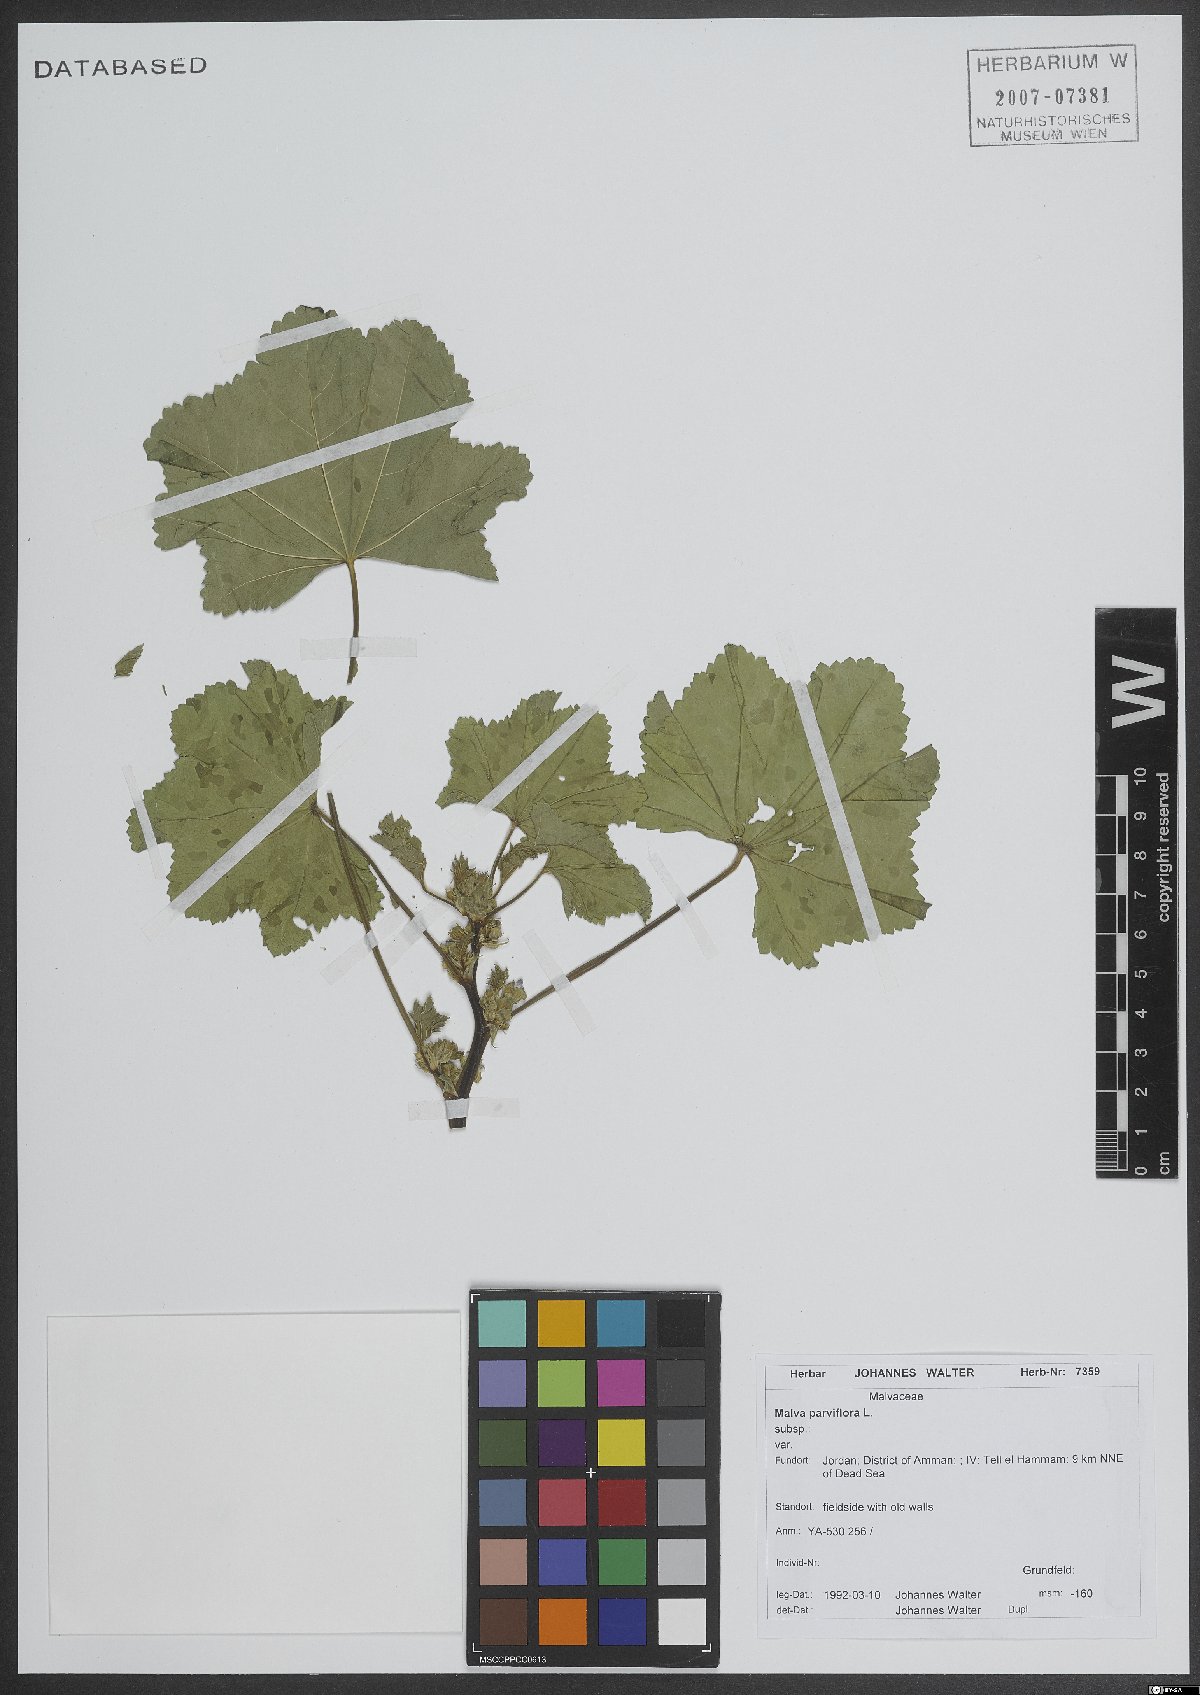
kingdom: Plantae
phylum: Tracheophyta
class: Magnoliopsida
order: Malvales
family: Malvaceae
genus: Malva
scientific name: Malva parviflora
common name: Least mallow
